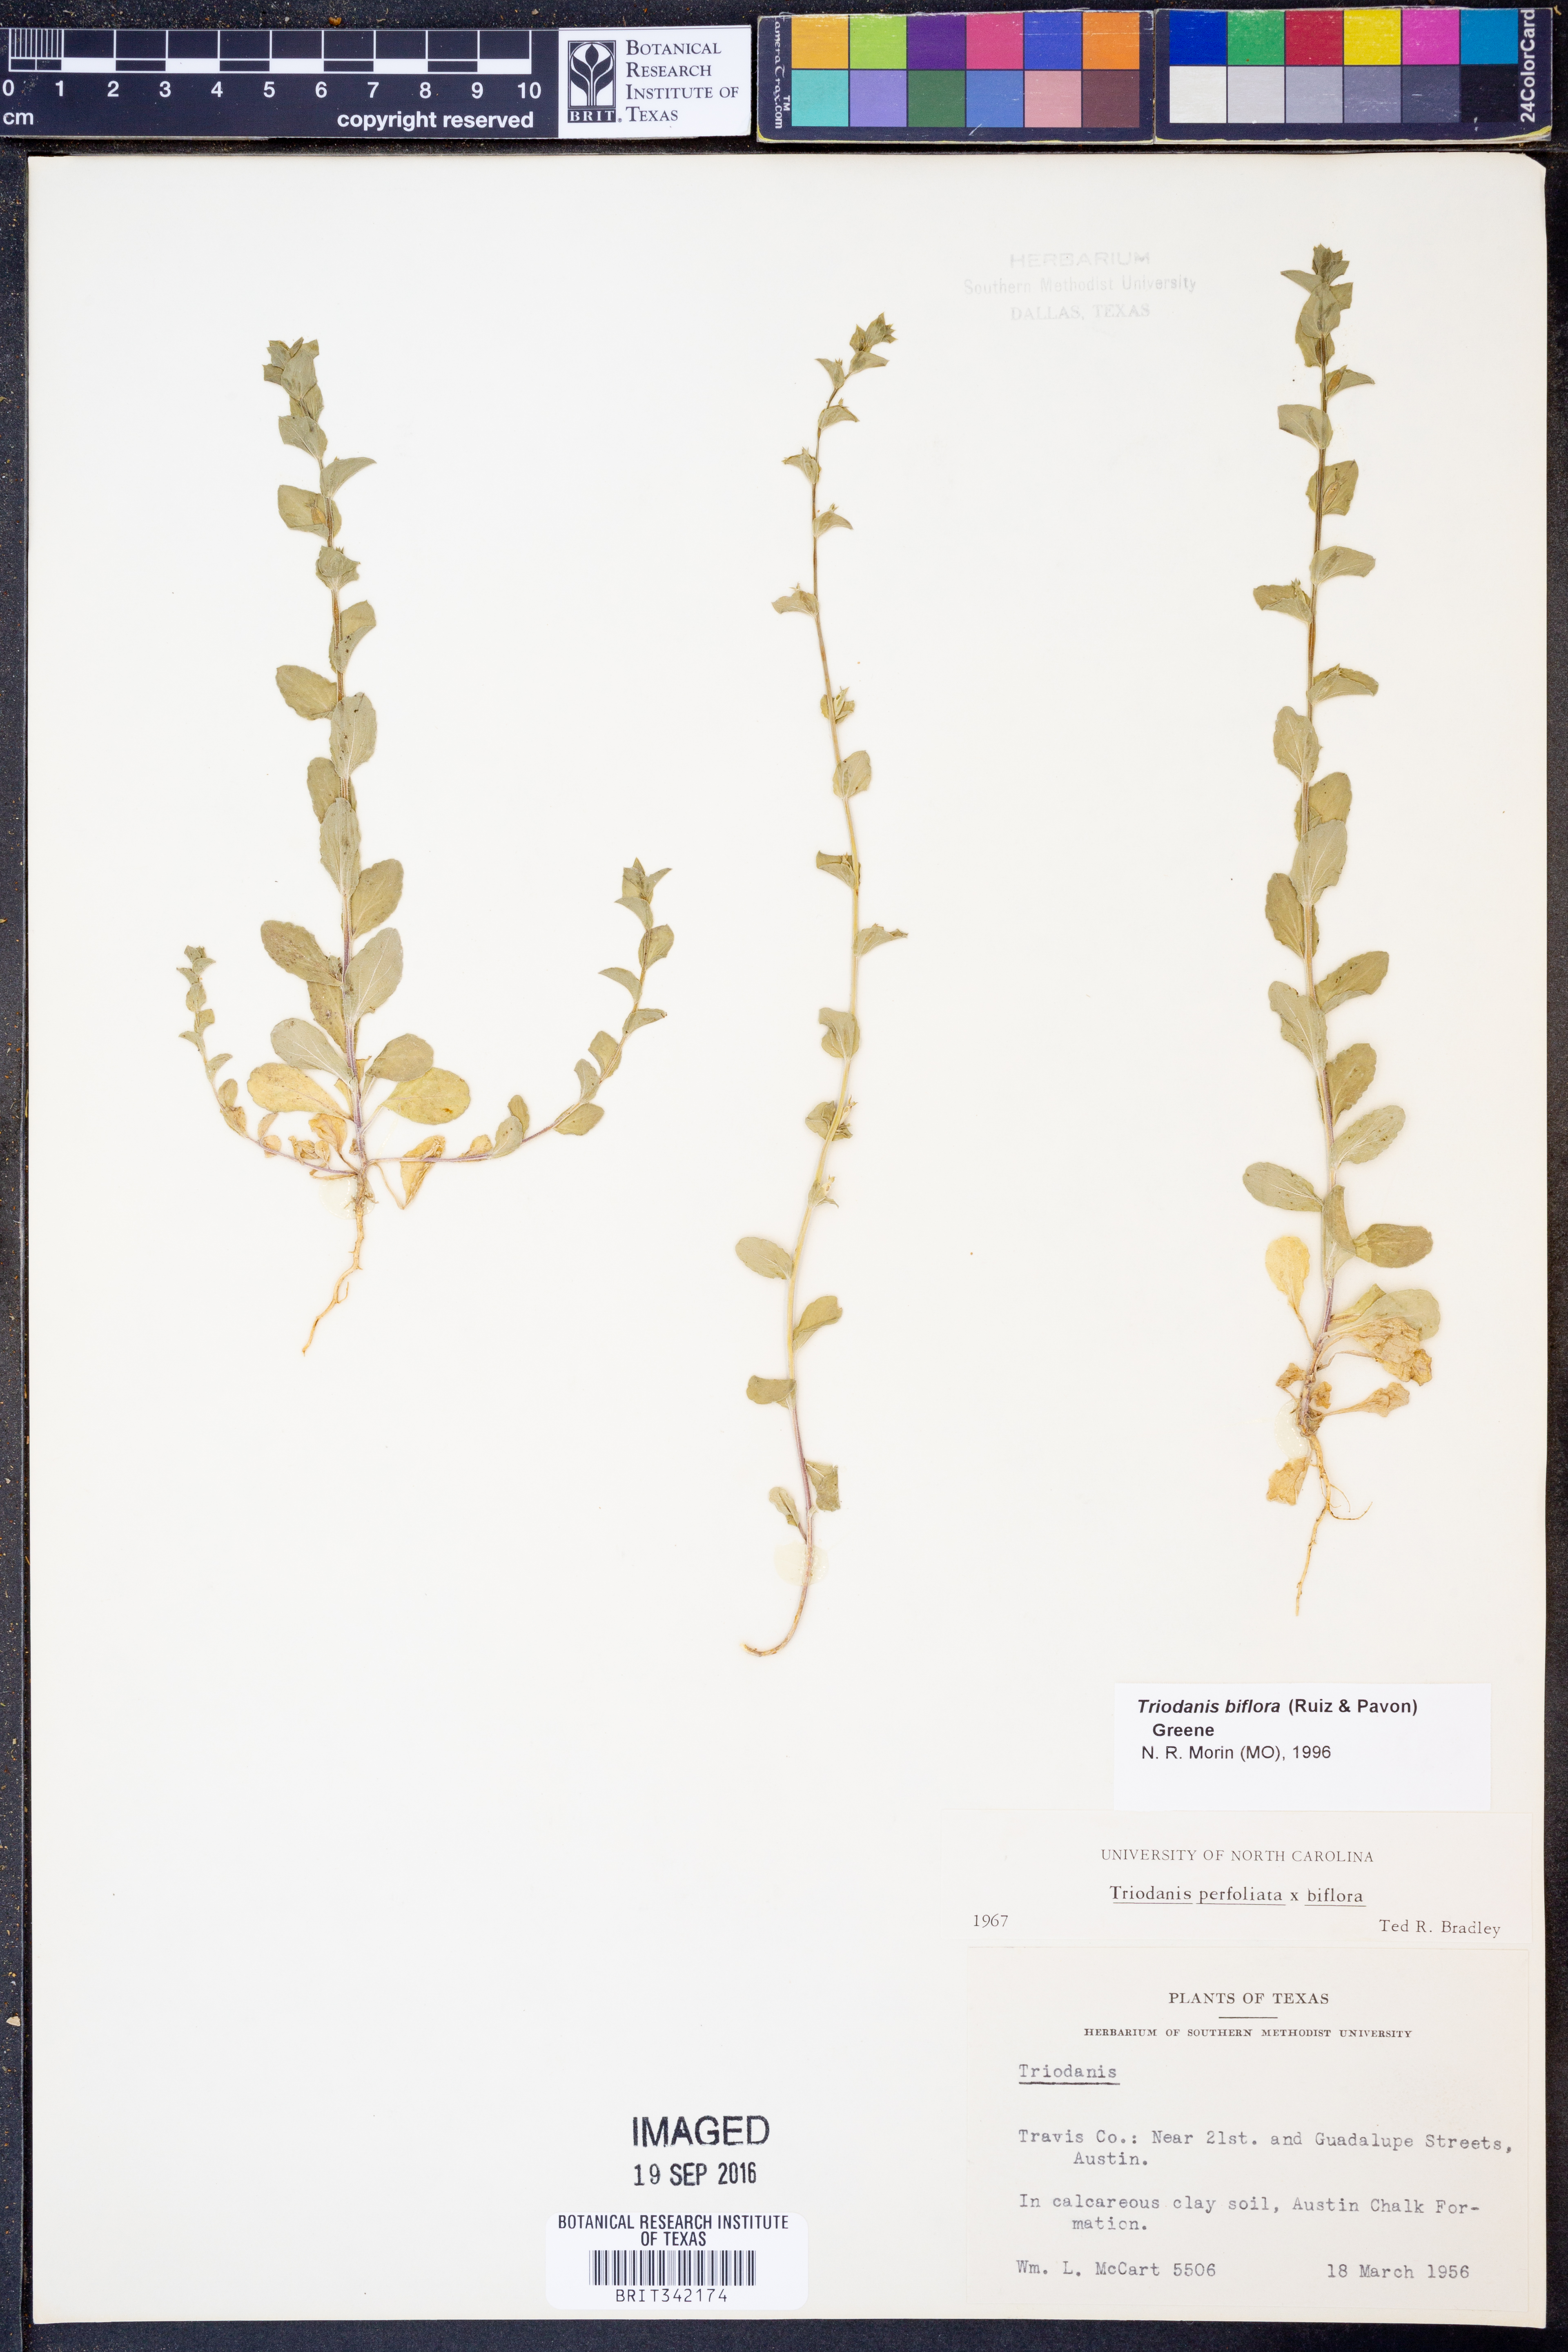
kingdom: Plantae
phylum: Tracheophyta
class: Magnoliopsida
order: Asterales
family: Campanulaceae
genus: Triodanis
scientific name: Triodanis perfoliata
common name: Clasping venus' looking-glass
